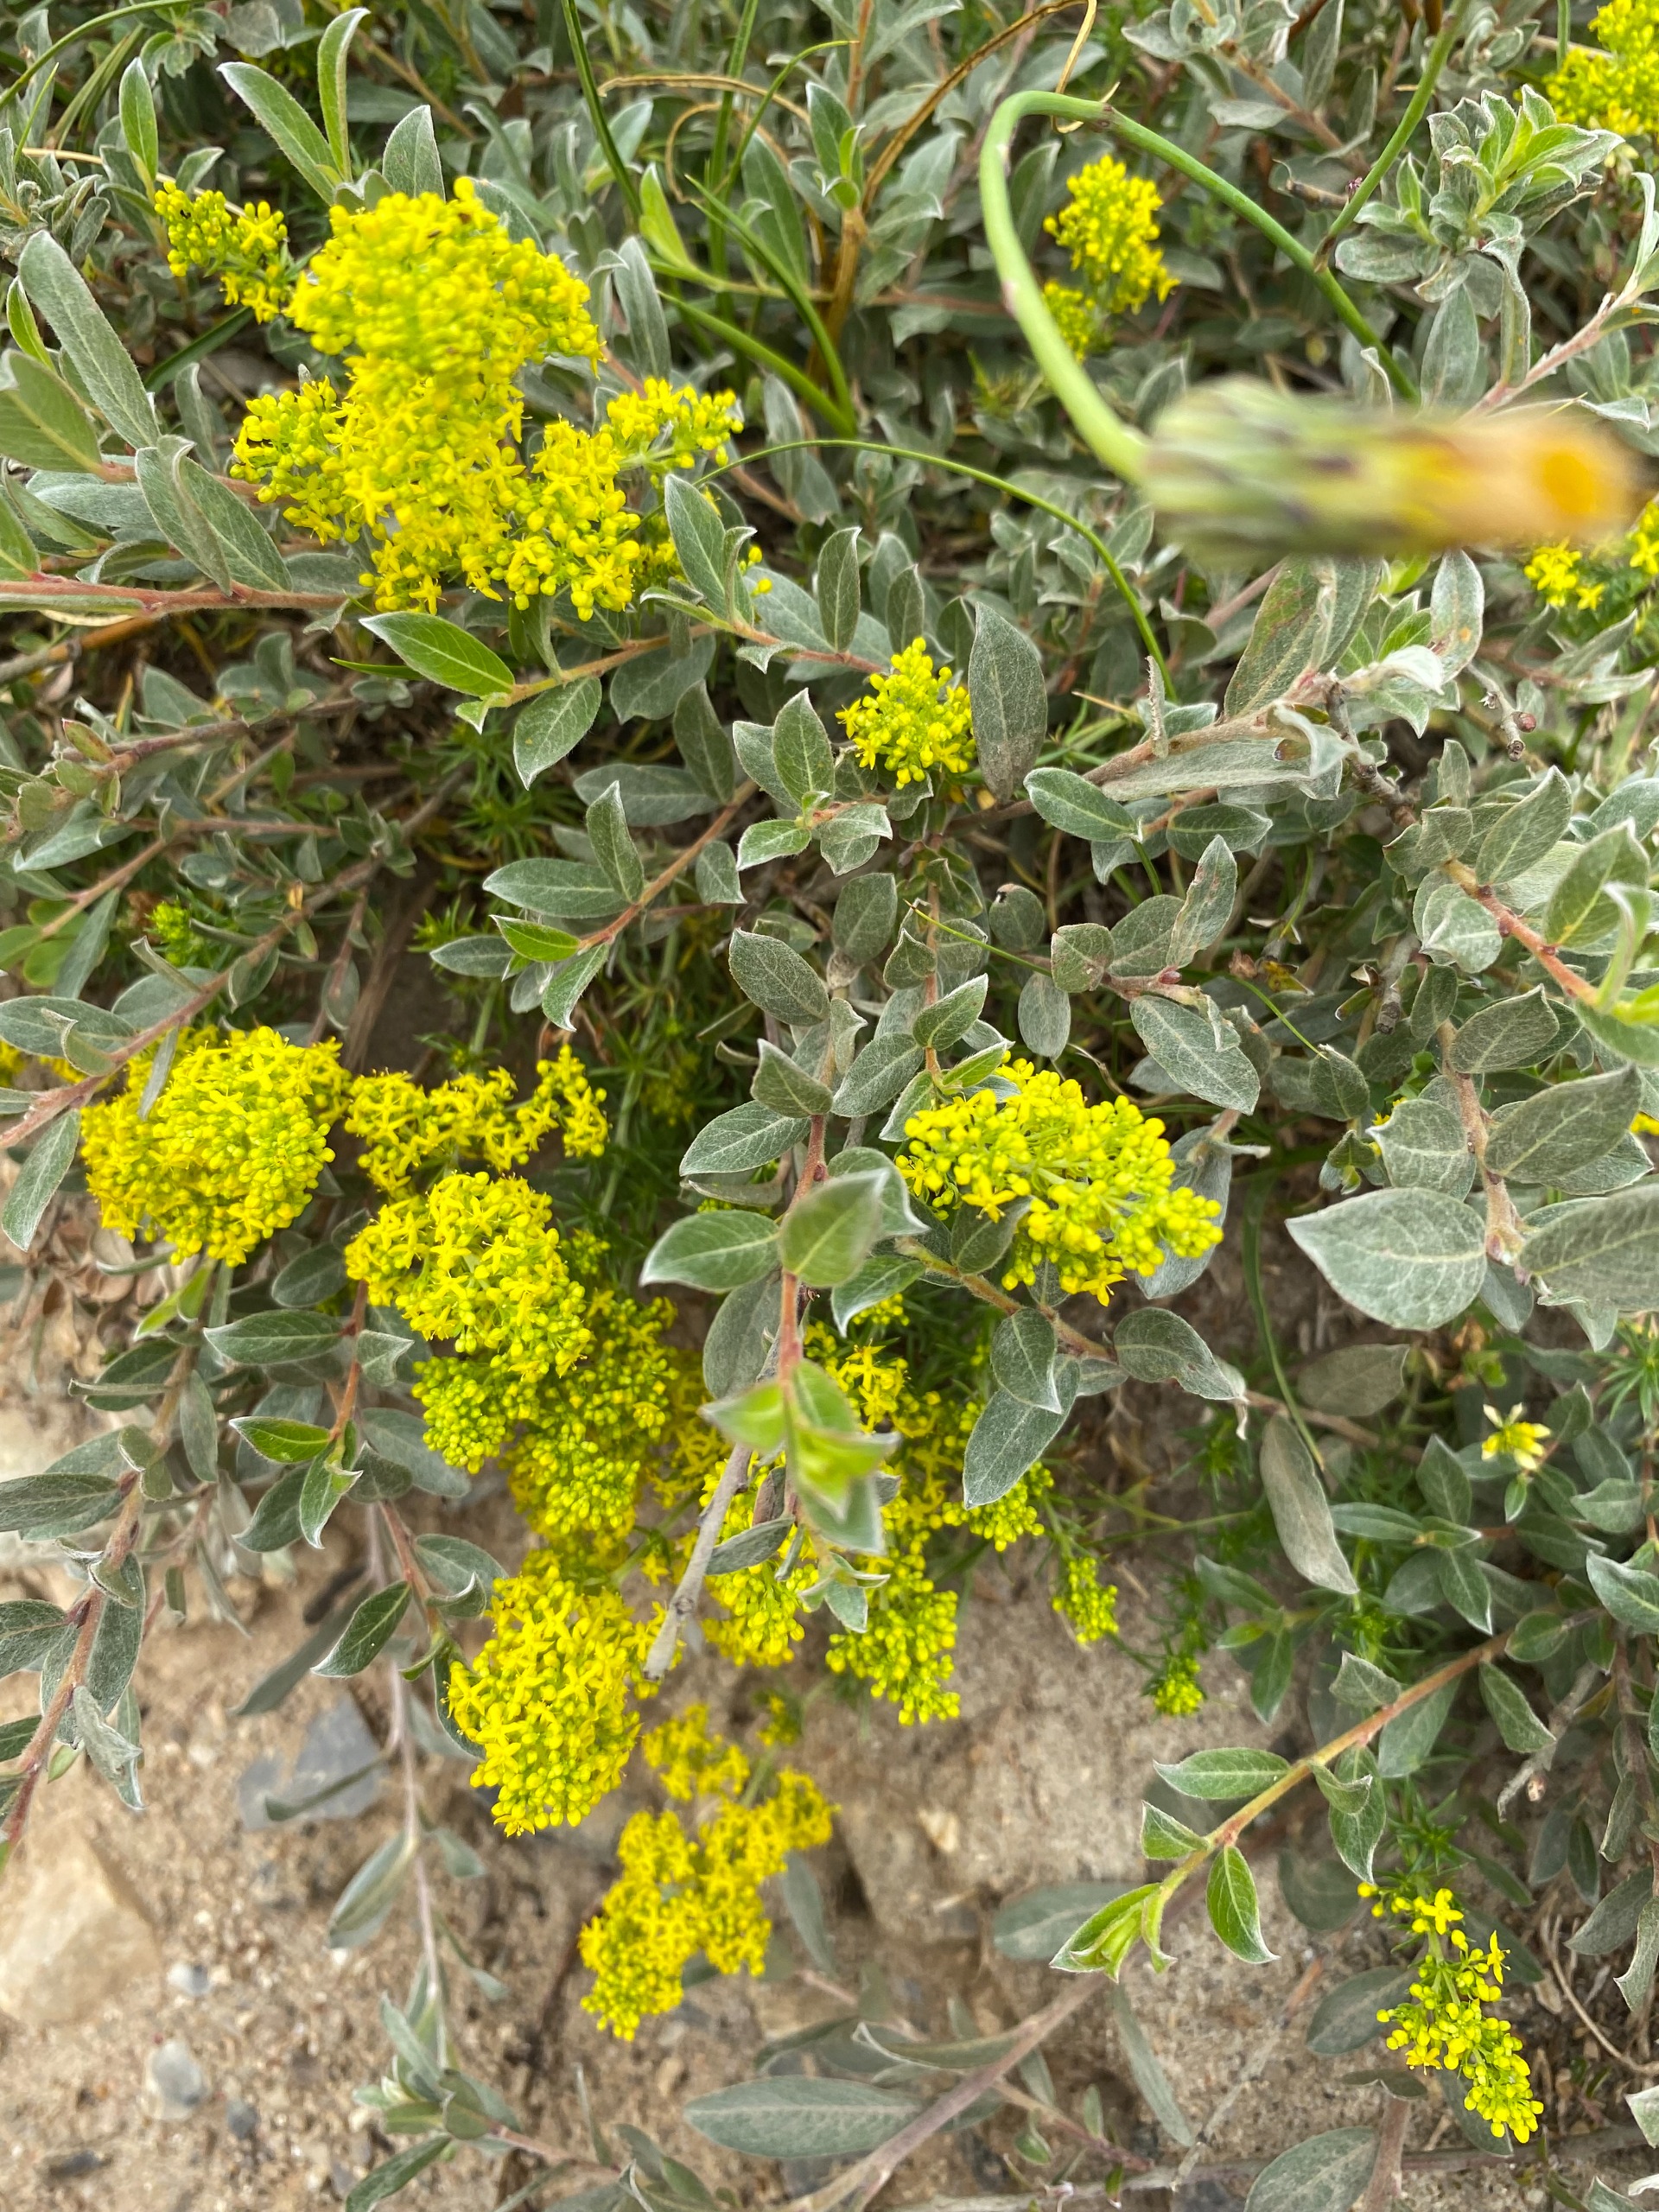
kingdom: Plantae
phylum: Tracheophyta
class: Magnoliopsida
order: Gentianales
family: Rubiaceae
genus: Galium
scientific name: Galium verum
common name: Gul snerre
